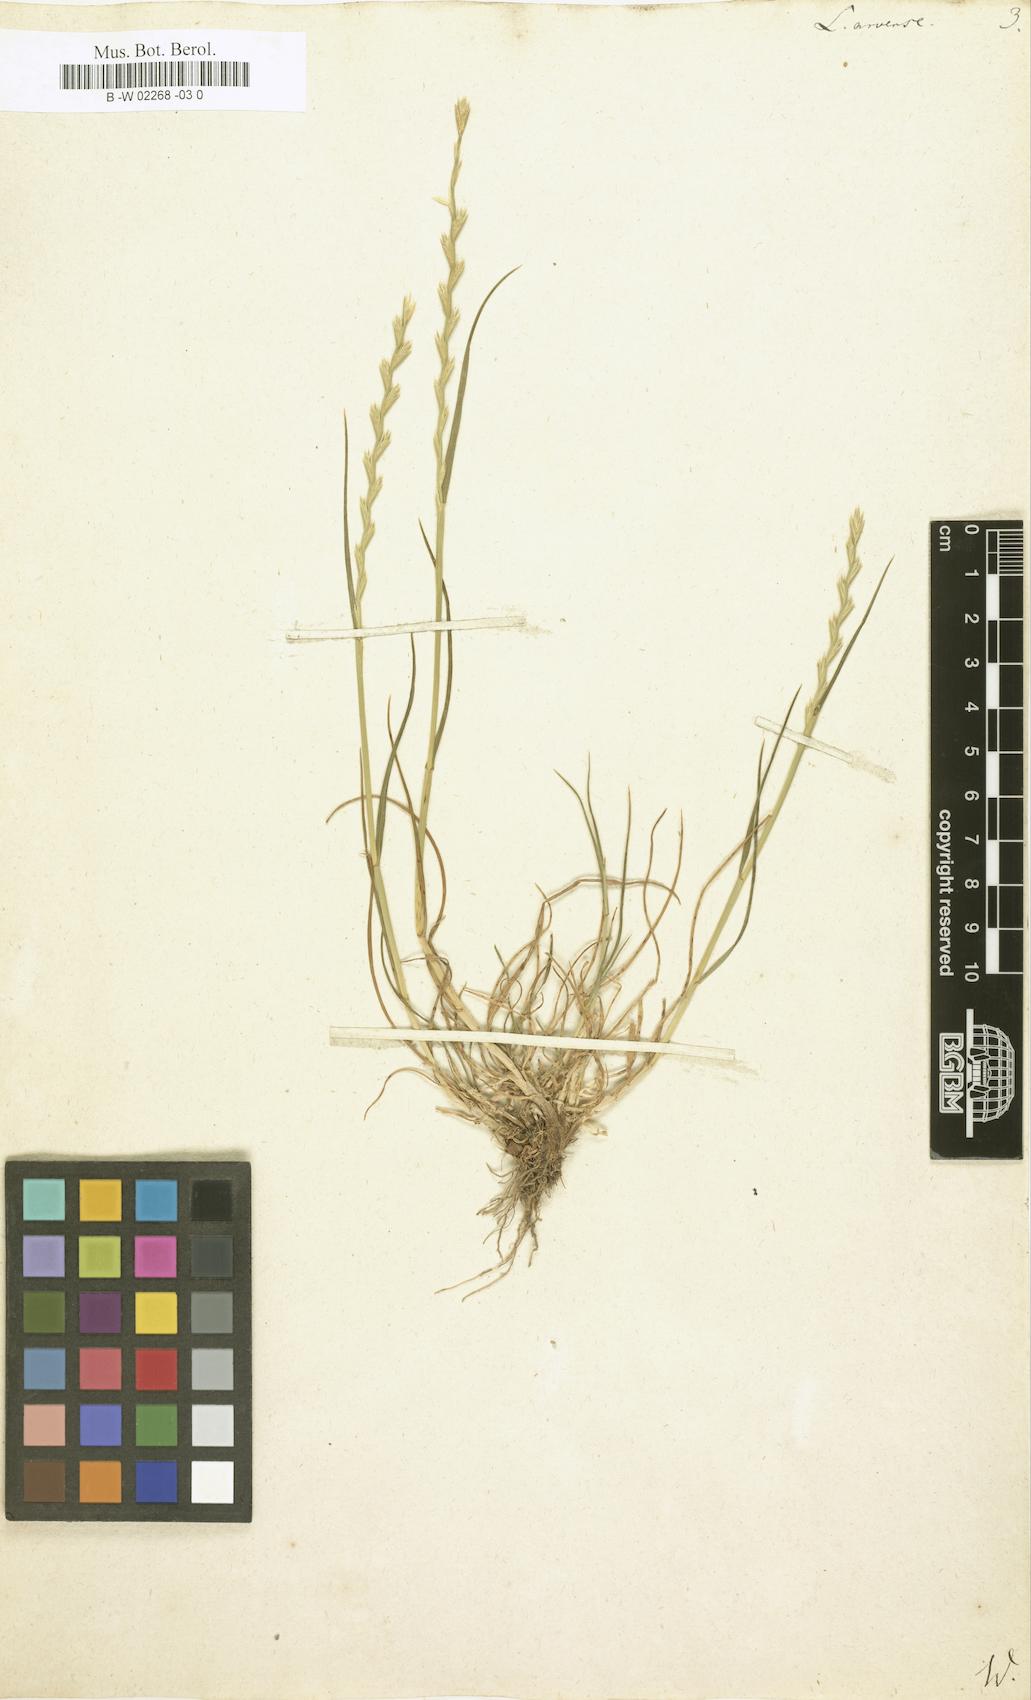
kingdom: Plantae
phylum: Tracheophyta
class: Liliopsida
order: Poales
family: Poaceae
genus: Lolium
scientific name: Lolium
